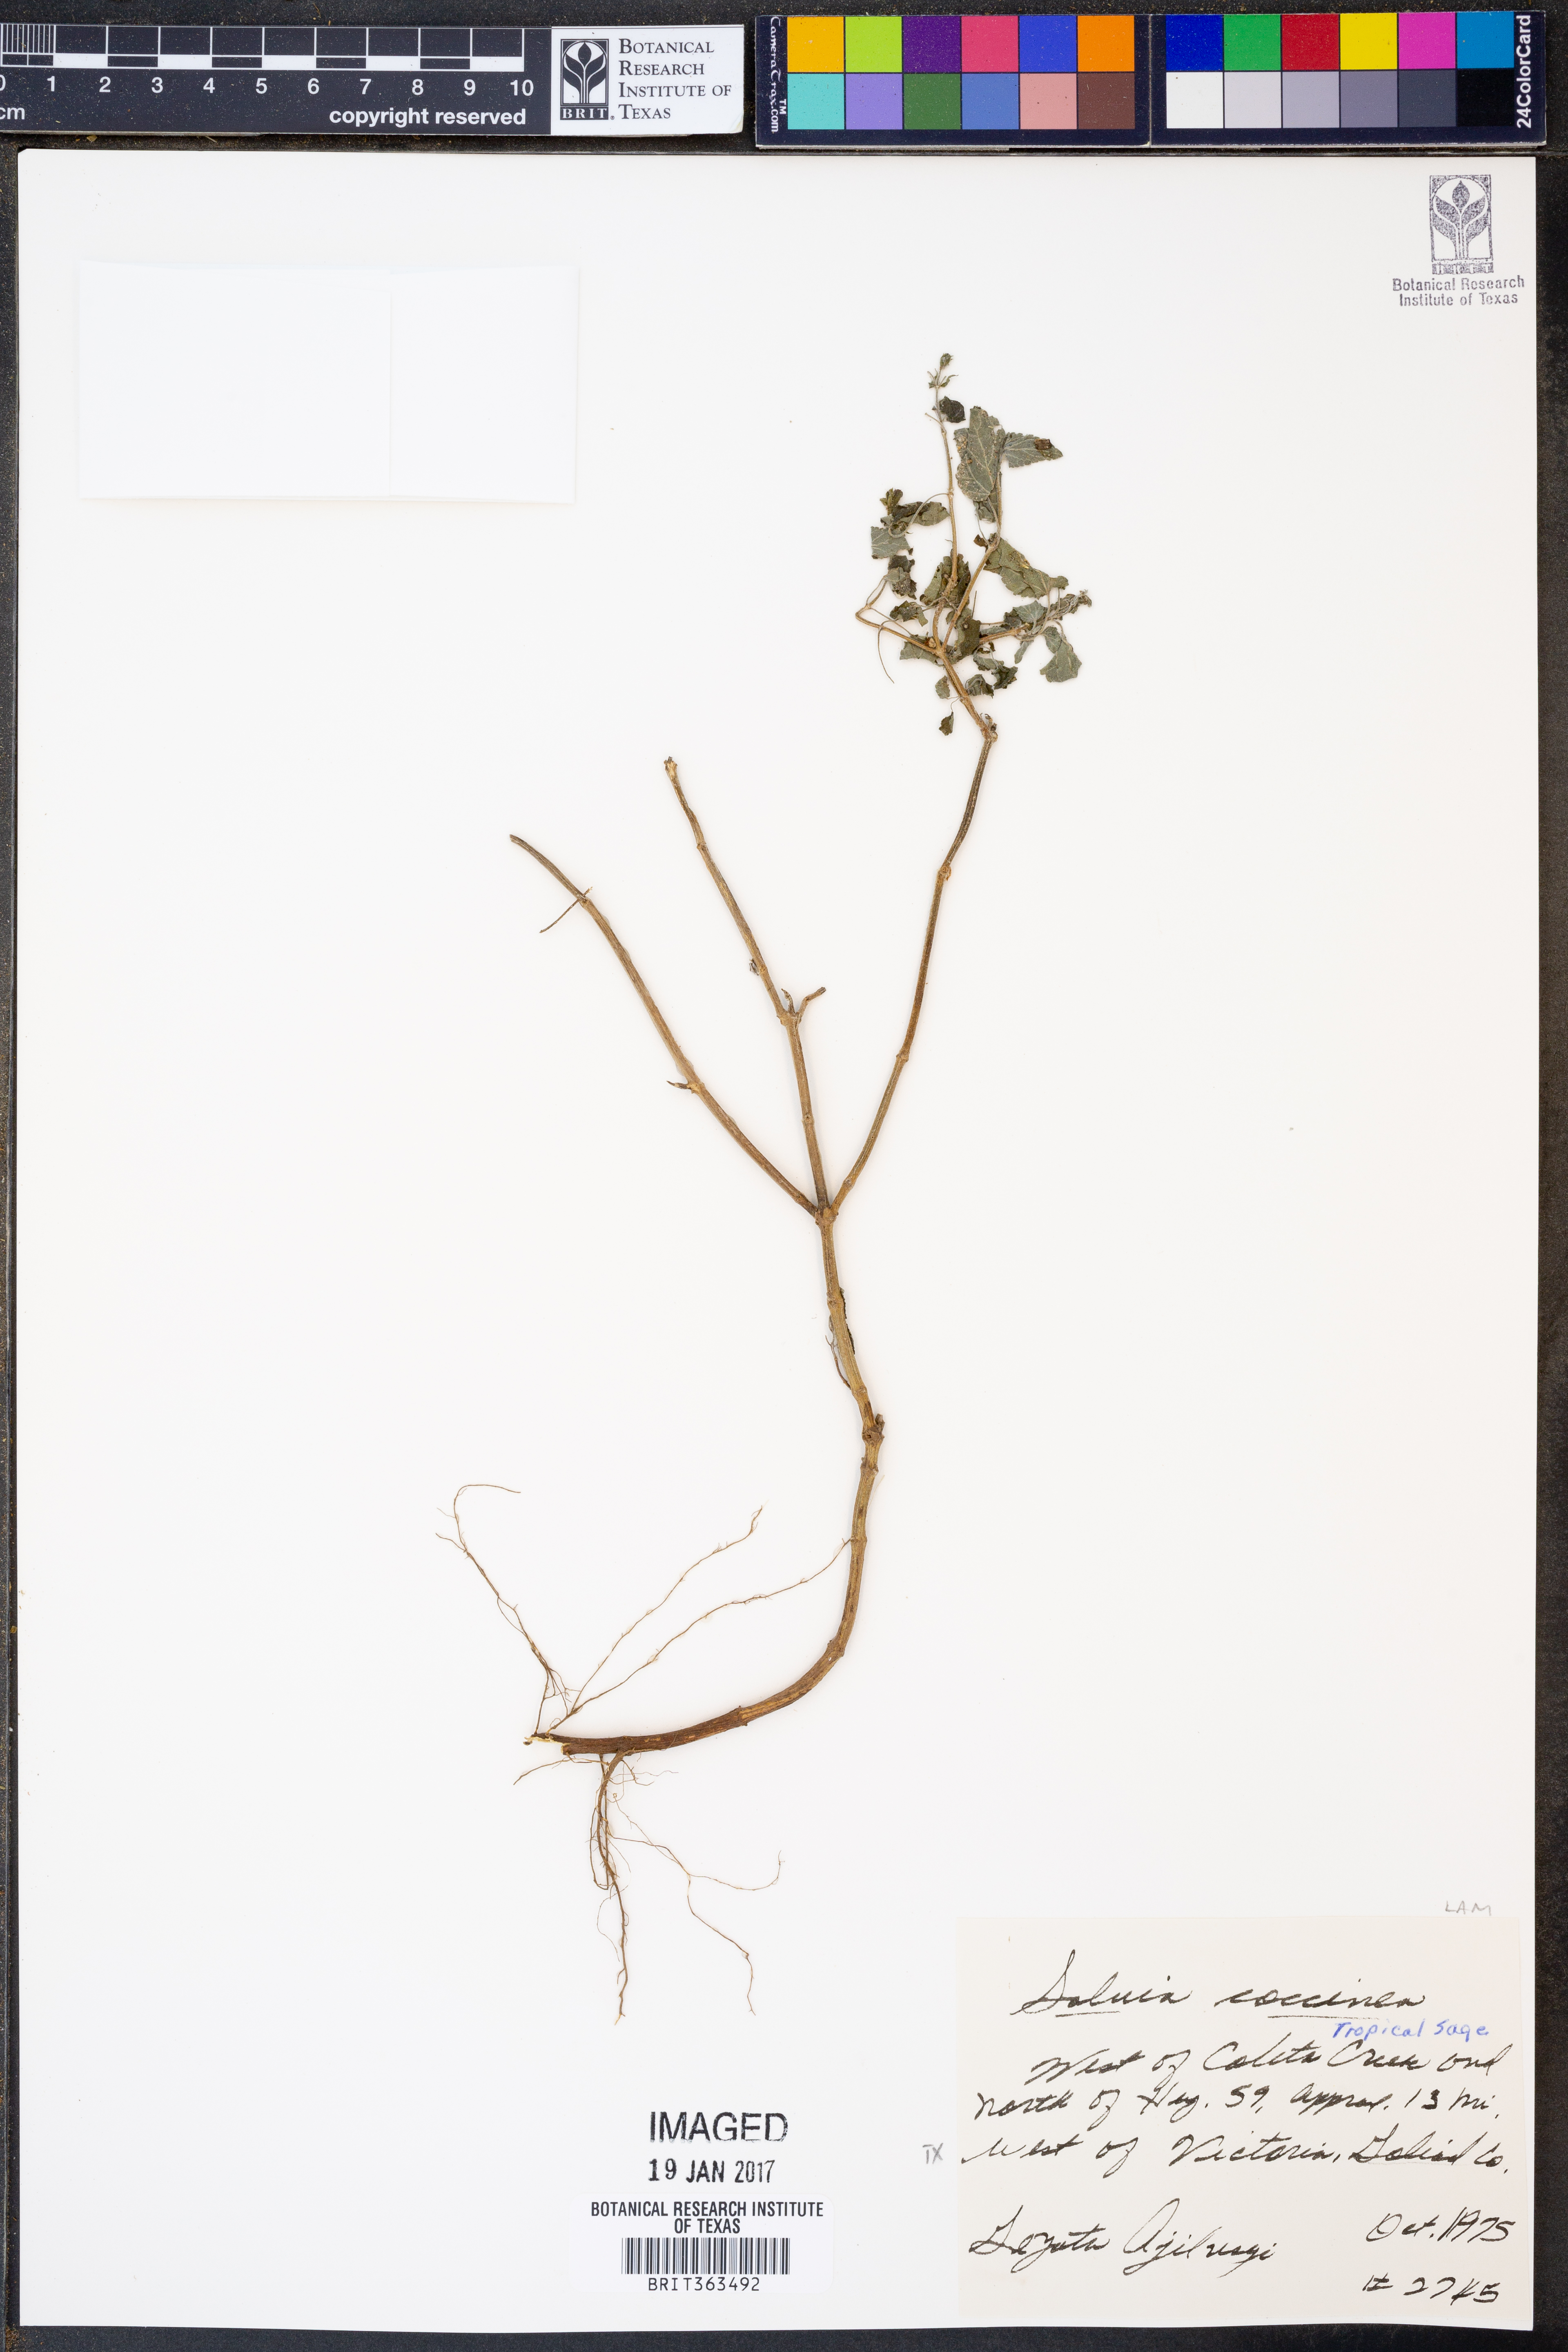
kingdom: Plantae
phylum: Tracheophyta
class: Magnoliopsida
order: Lamiales
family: Lamiaceae
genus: Salvia
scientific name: Salvia coccinea
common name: Blood sage
